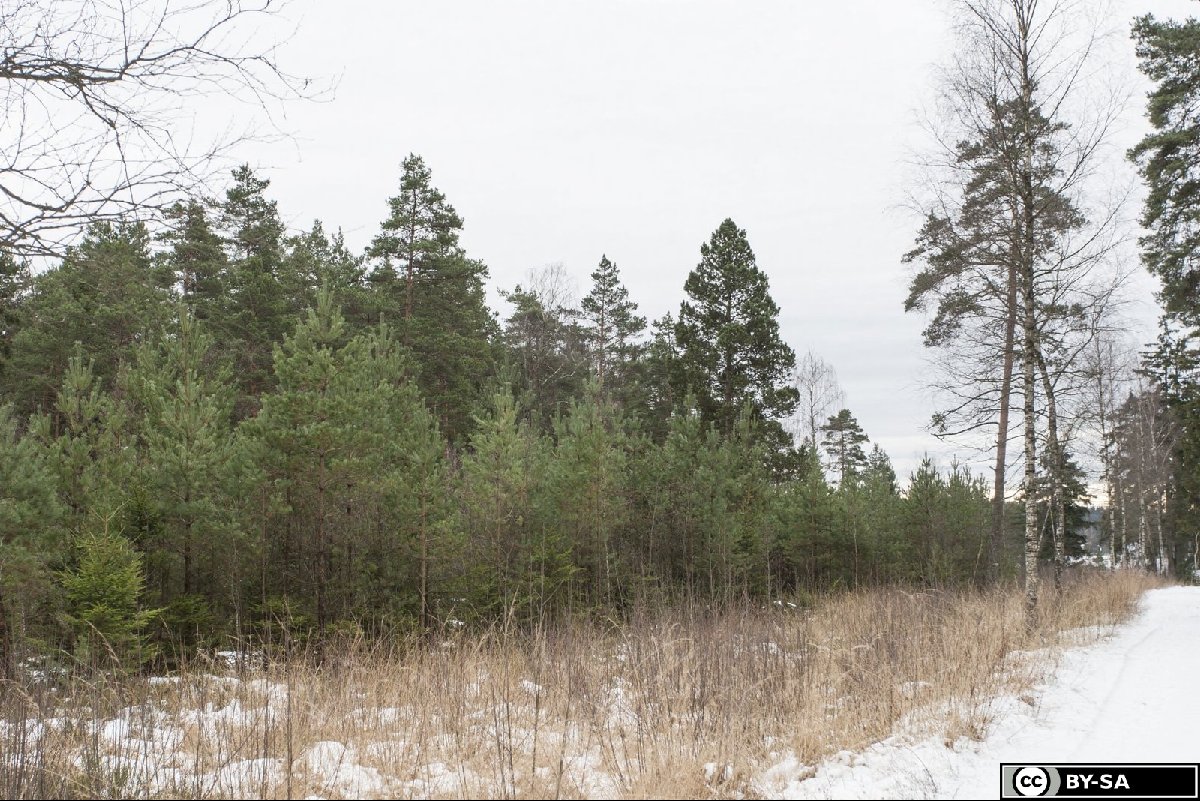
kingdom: Plantae
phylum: Tracheophyta
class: Pinopsida
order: Pinales
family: Pinaceae
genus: Pinus
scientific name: Pinus mugo
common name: Mugo pine
